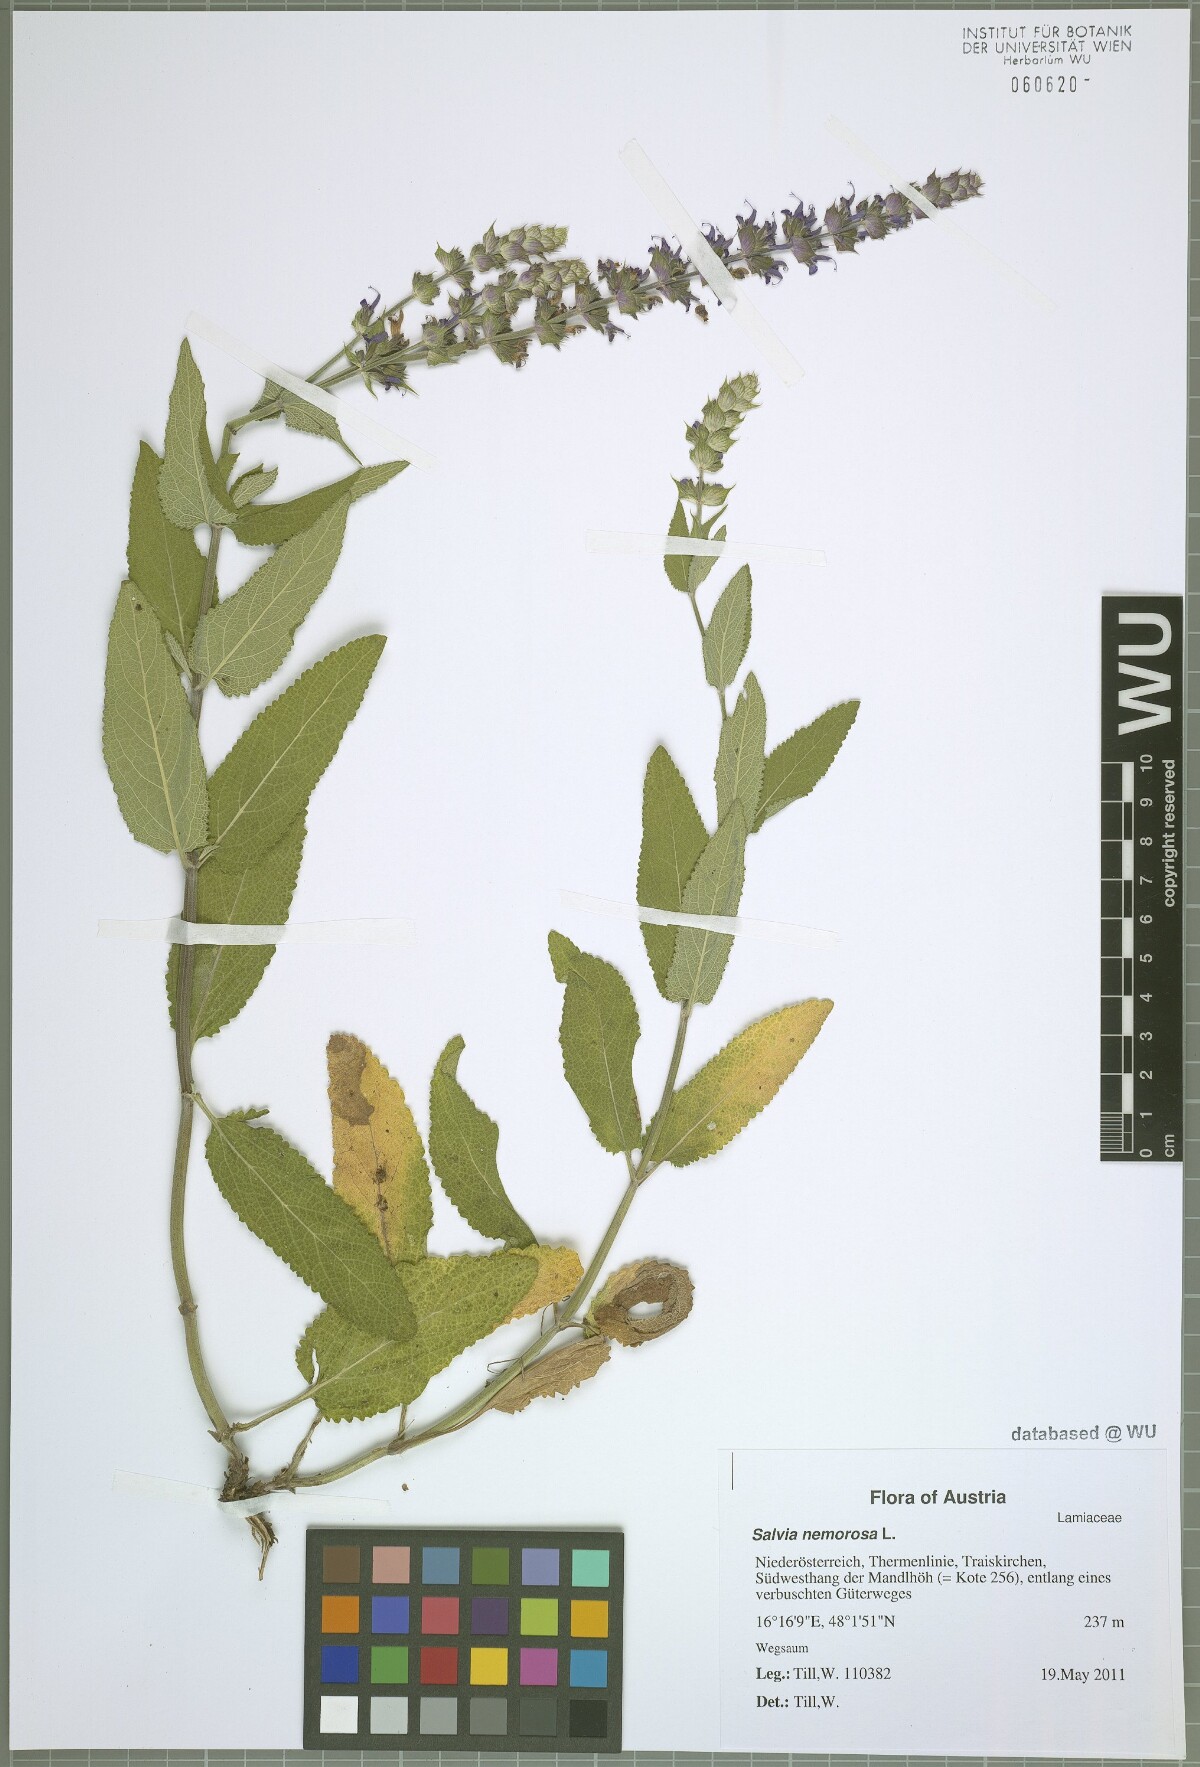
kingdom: Plantae
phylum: Tracheophyta
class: Magnoliopsida
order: Lamiales
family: Lamiaceae
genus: Salvia
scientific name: Salvia nemorosa
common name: Balkan clary
